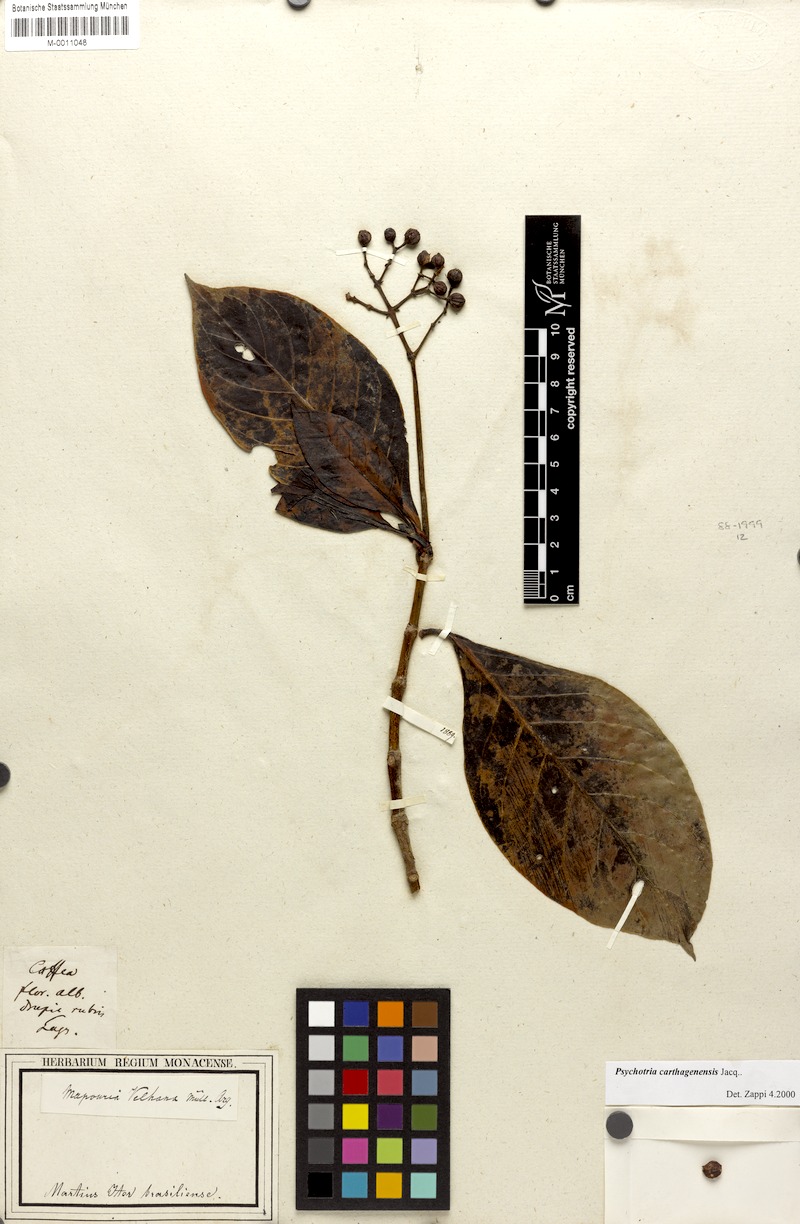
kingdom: Plantae
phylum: Tracheophyta
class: Magnoliopsida
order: Gentianales
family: Rubiaceae
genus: Psychotria
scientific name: Psychotria carthagenensis
